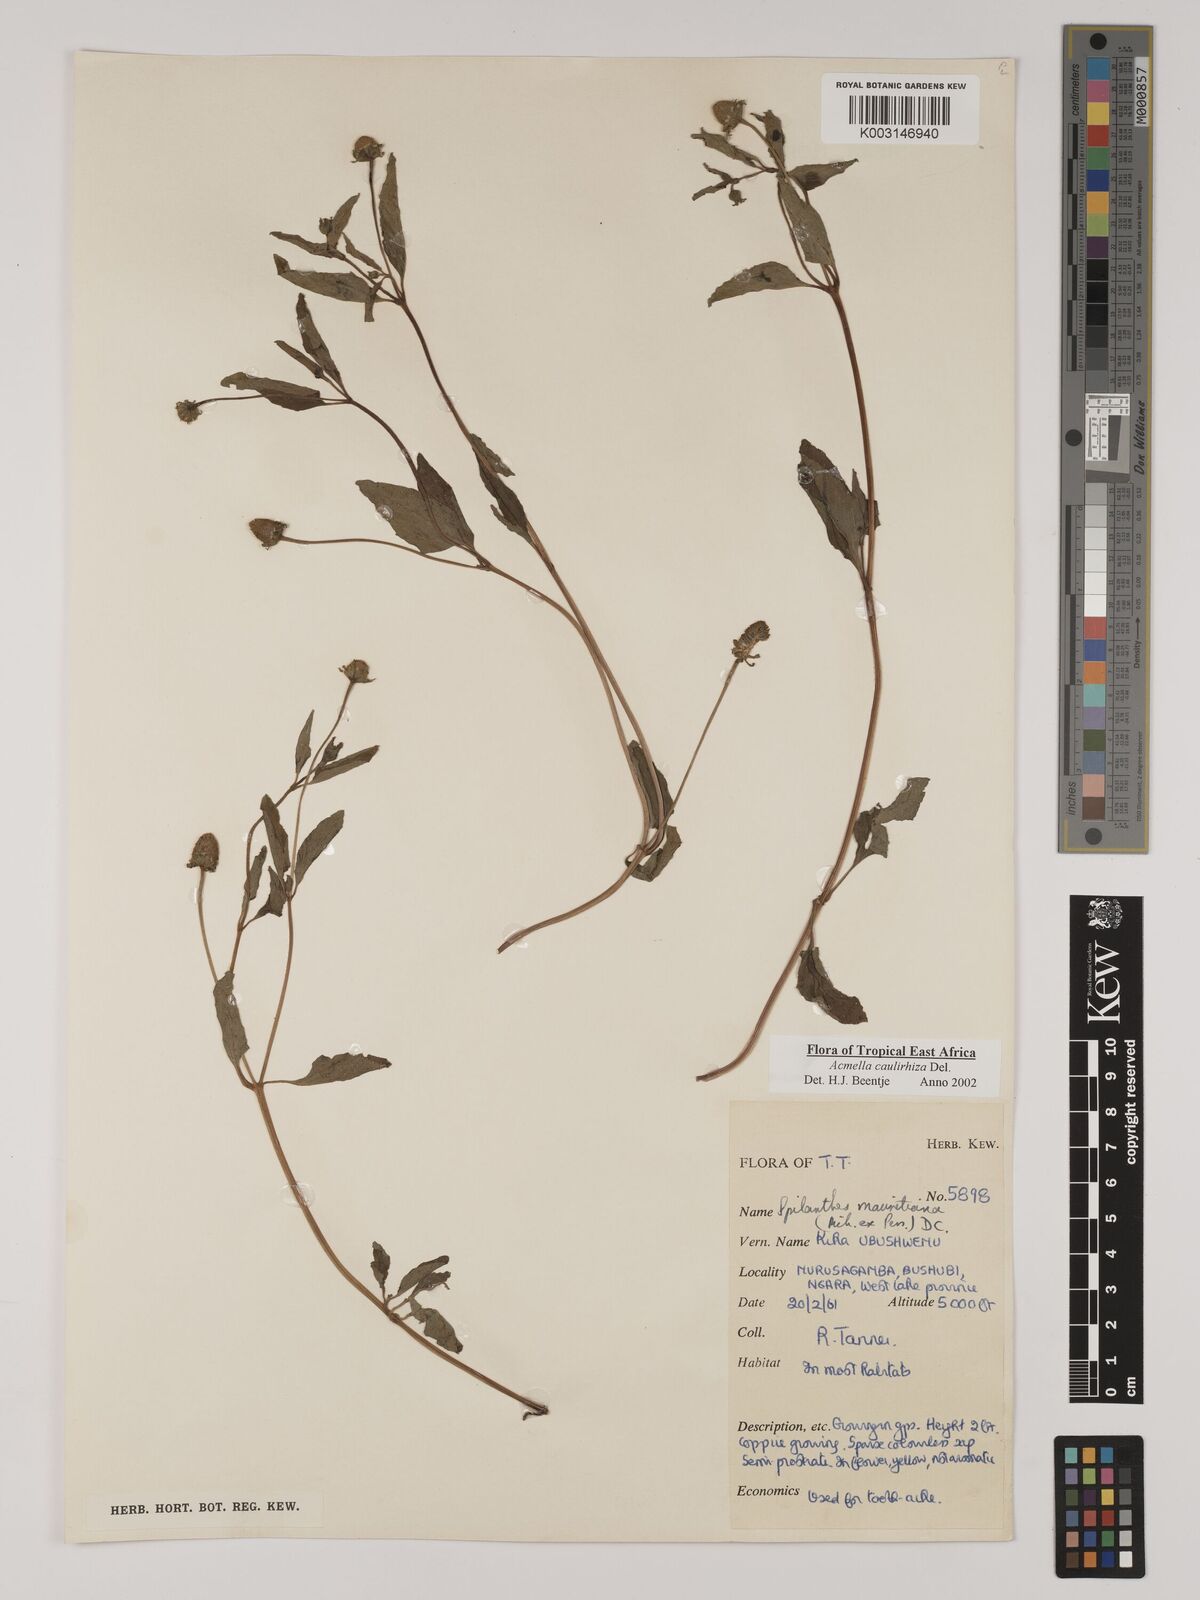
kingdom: Plantae
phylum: Tracheophyta
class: Magnoliopsida
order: Asterales
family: Asteraceae
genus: Acmella
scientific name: Acmella caulirhiza
